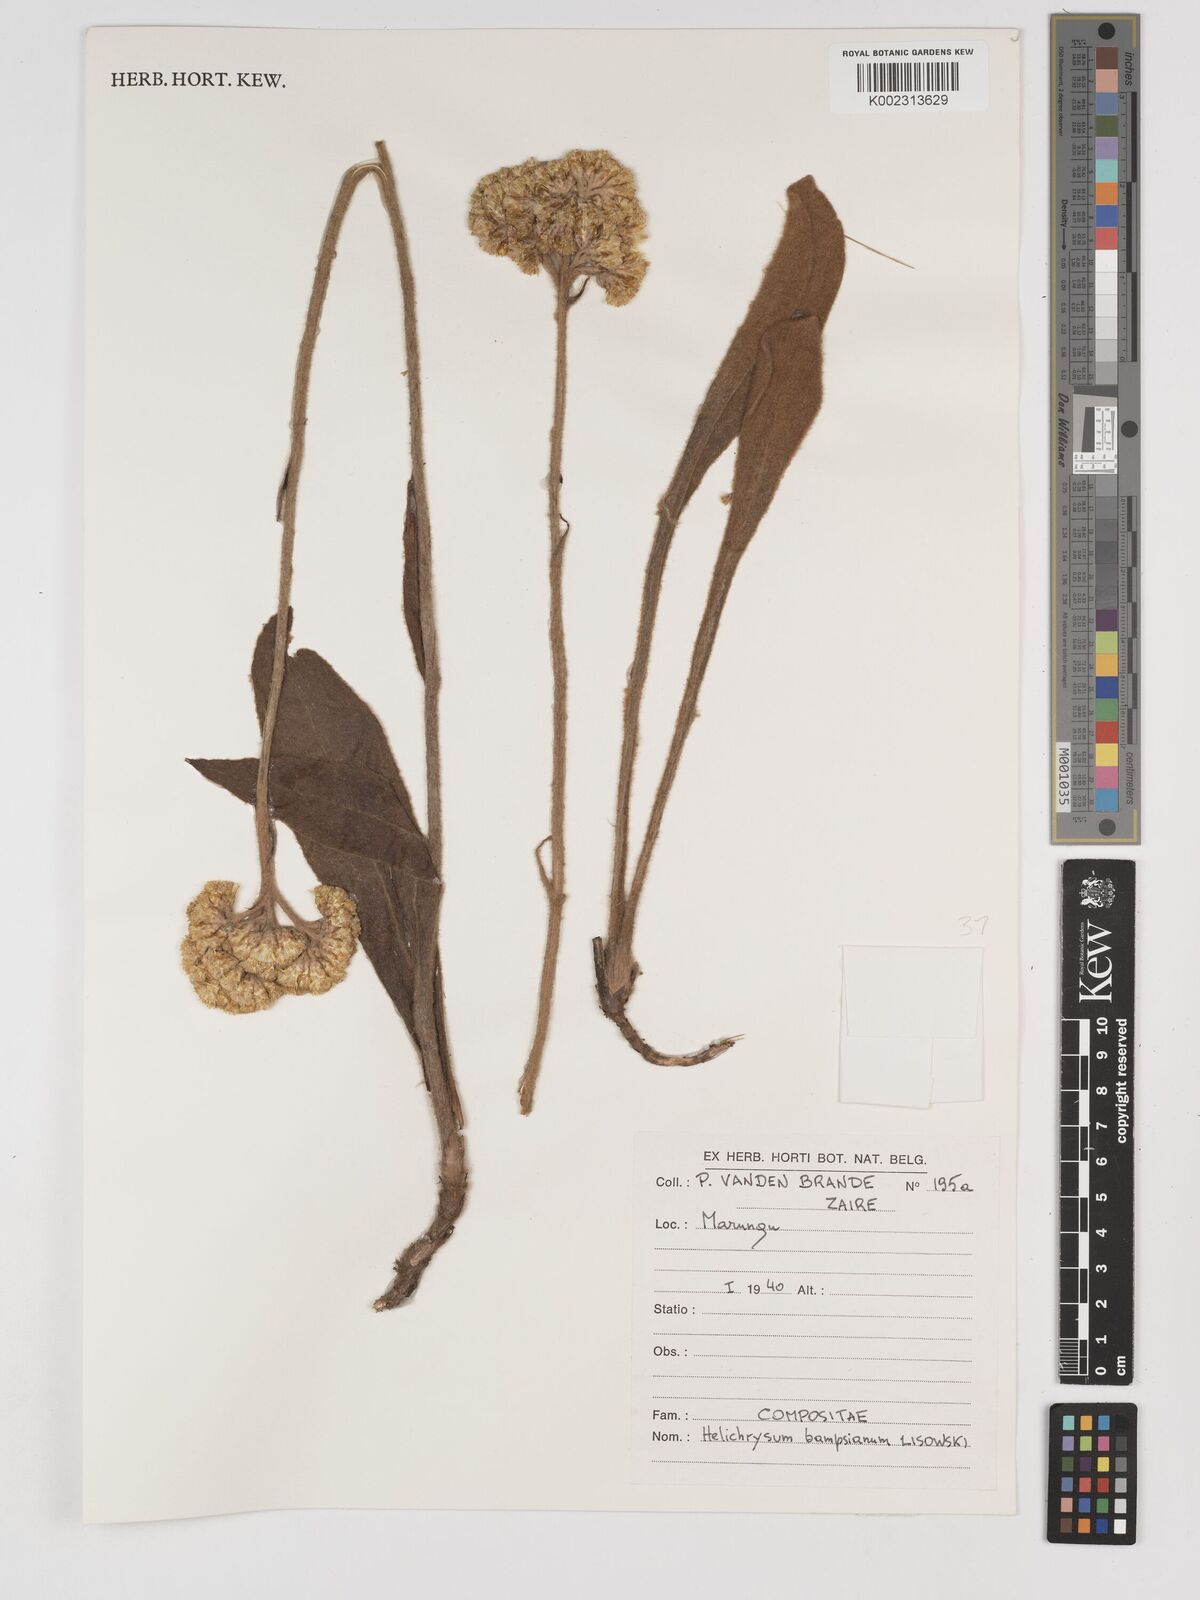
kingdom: Plantae
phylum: Tracheophyta
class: Magnoliopsida
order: Asterales
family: Asteraceae
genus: Helichrysum
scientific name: Helichrysum bampsianum
